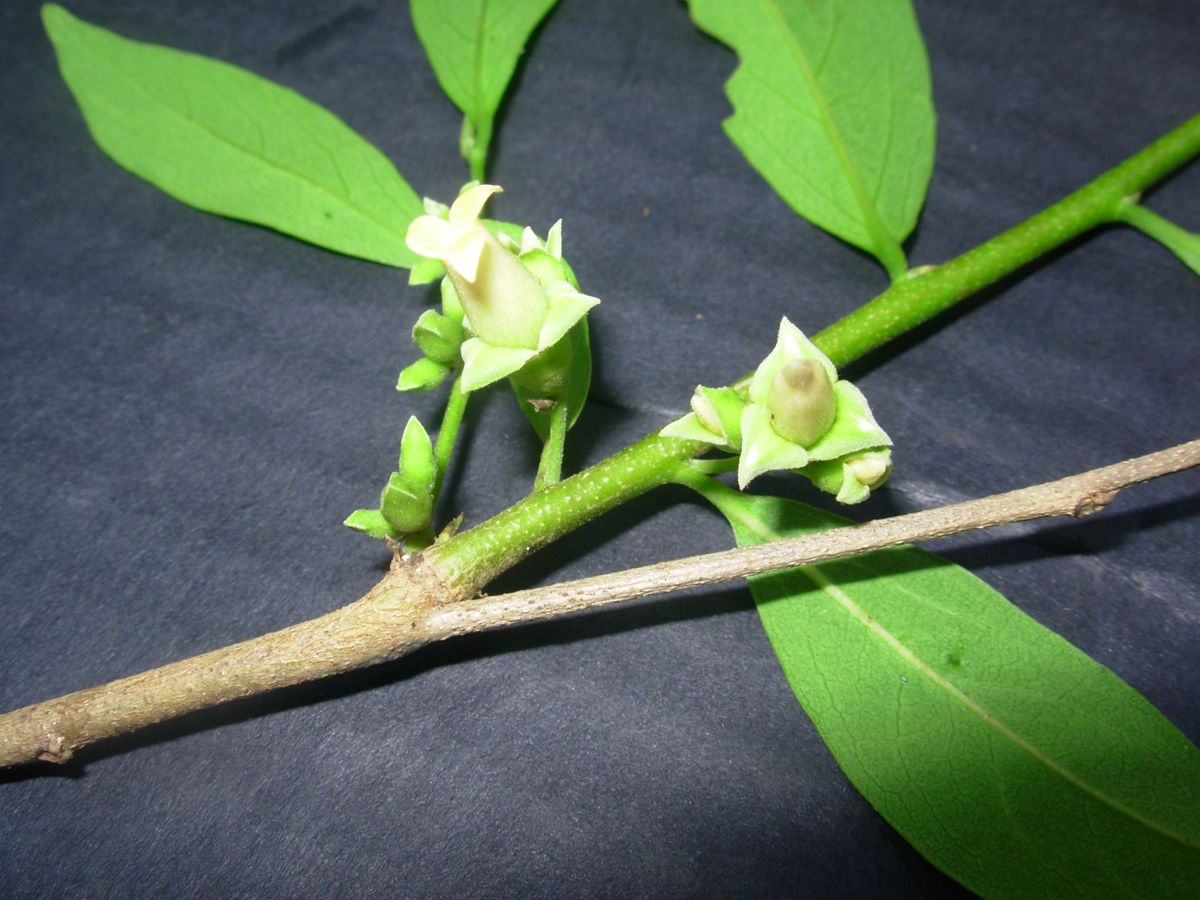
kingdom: Plantae
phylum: Tracheophyta
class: Magnoliopsida
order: Ericales
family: Ebenaceae
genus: Diospyros
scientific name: Diospyros salicifolia
